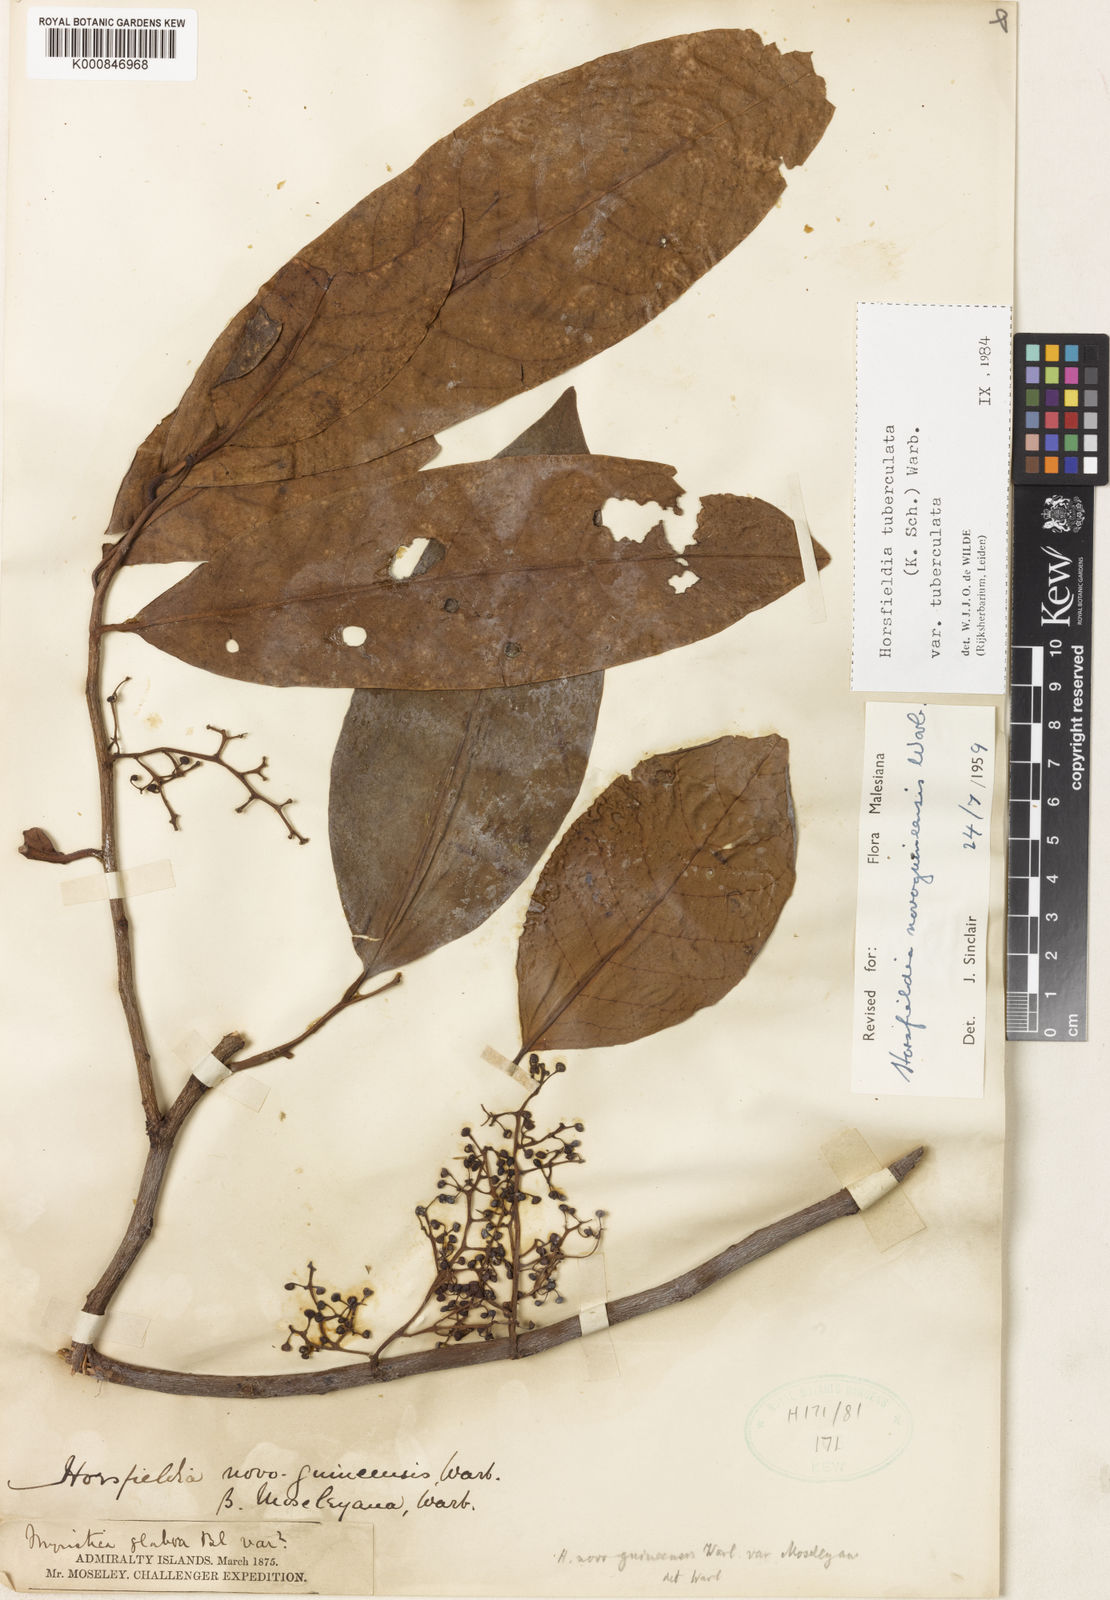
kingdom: Plantae
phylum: Tracheophyta
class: Magnoliopsida
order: Magnoliales
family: Myristicaceae
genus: Horsfieldia
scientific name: Horsfieldia tuberculata
